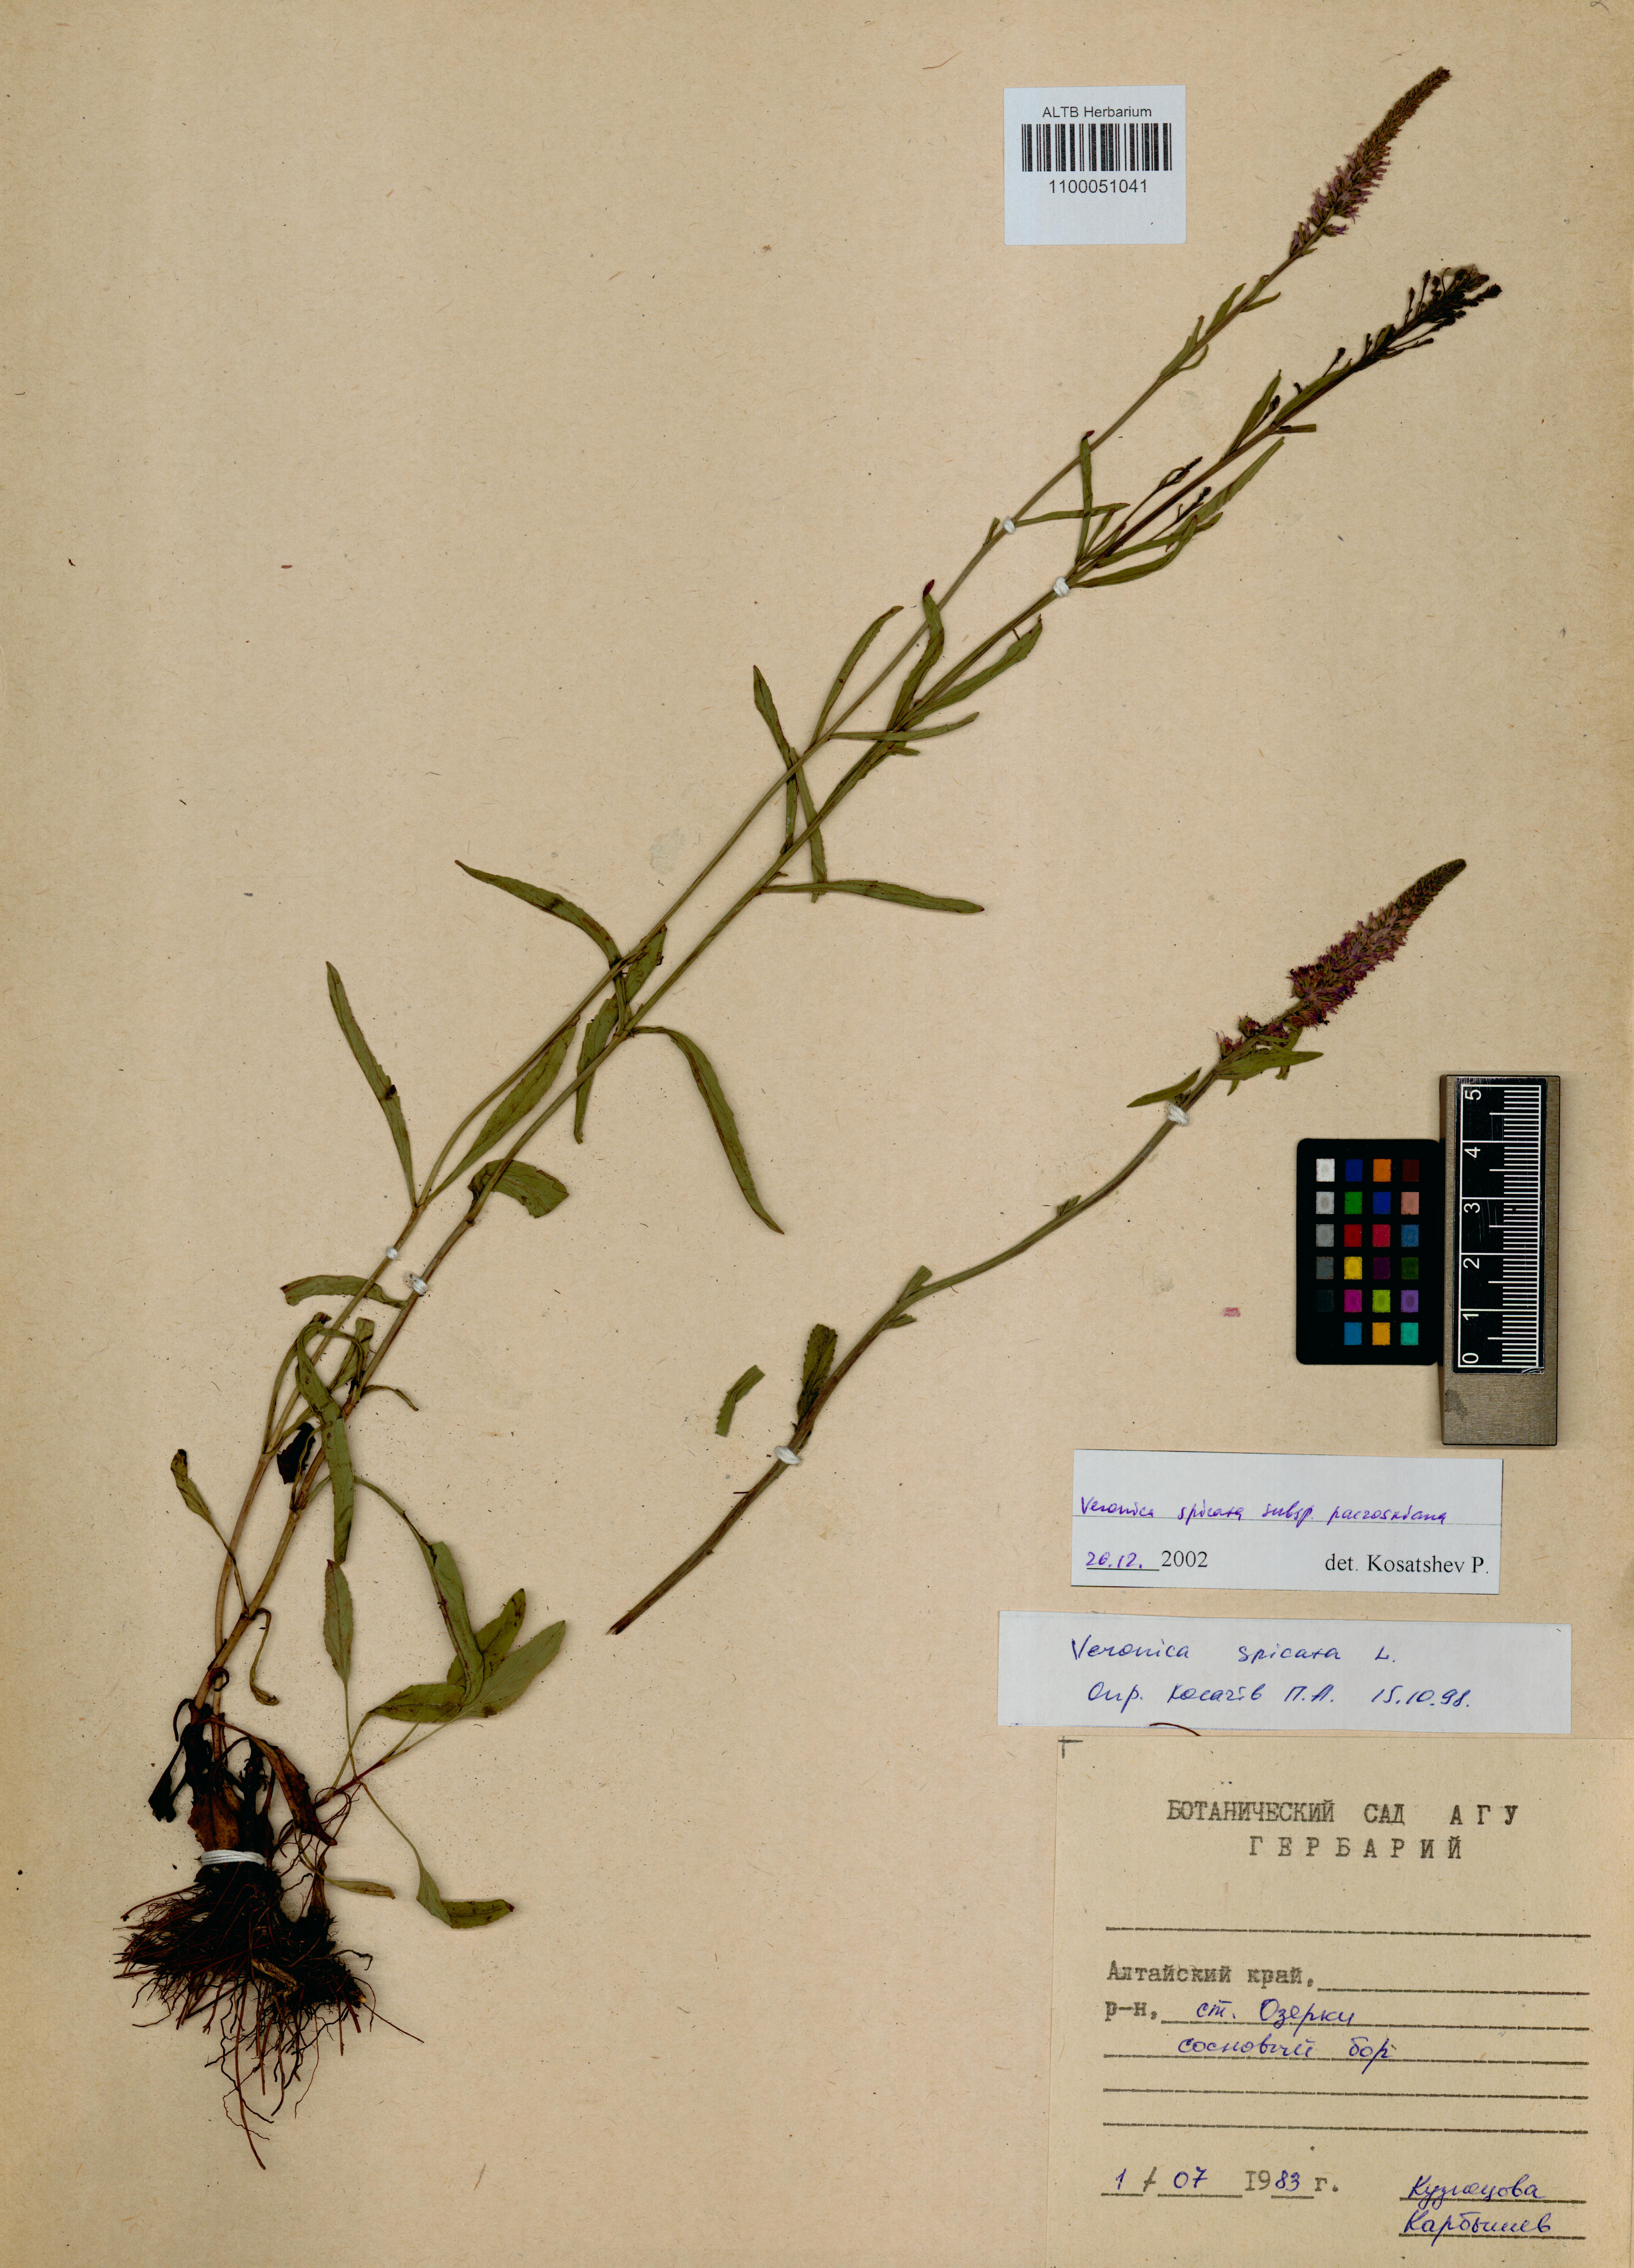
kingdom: Plantae
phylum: Tracheophyta
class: Magnoliopsida
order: Lamiales
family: Plantaginaceae
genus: Veronica
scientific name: Veronica spicata
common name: Spiked speedwell
